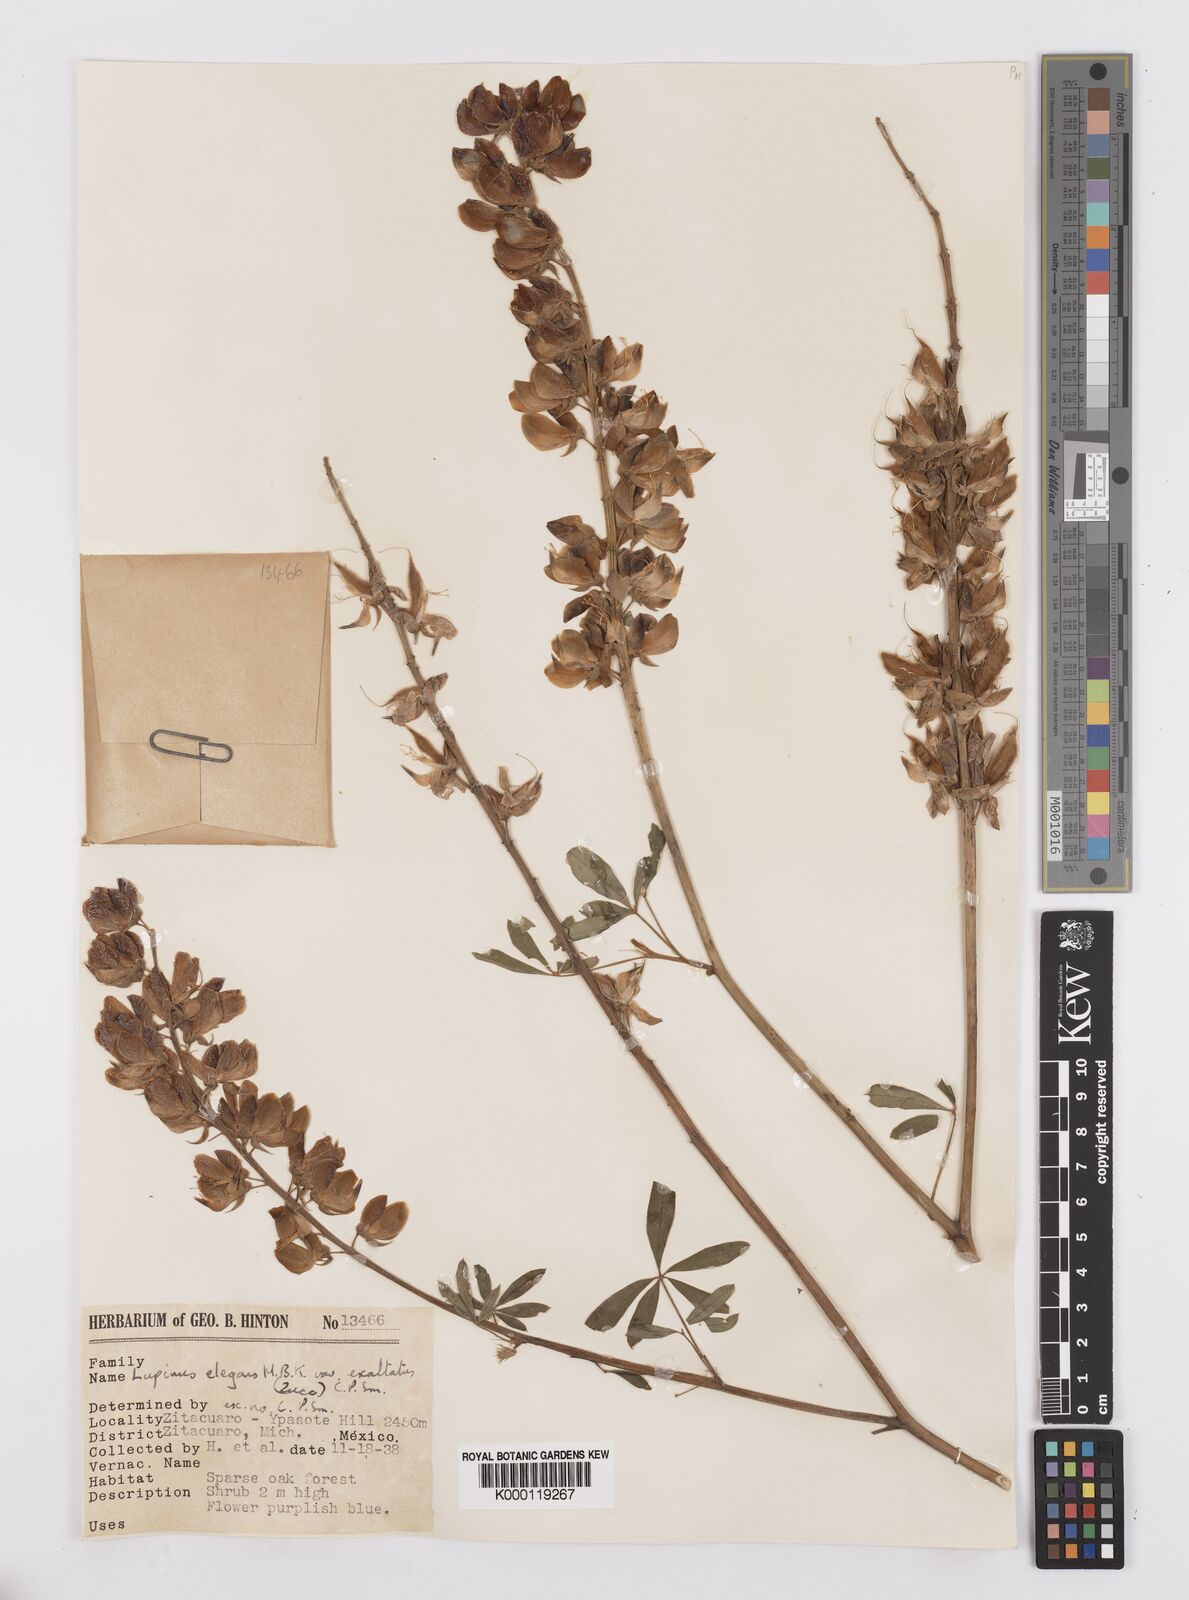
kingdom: Plantae
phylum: Tracheophyta
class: Magnoliopsida
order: Fabales
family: Fabaceae
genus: Lupinus
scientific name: Lupinus elegans
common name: Mexican lupine
